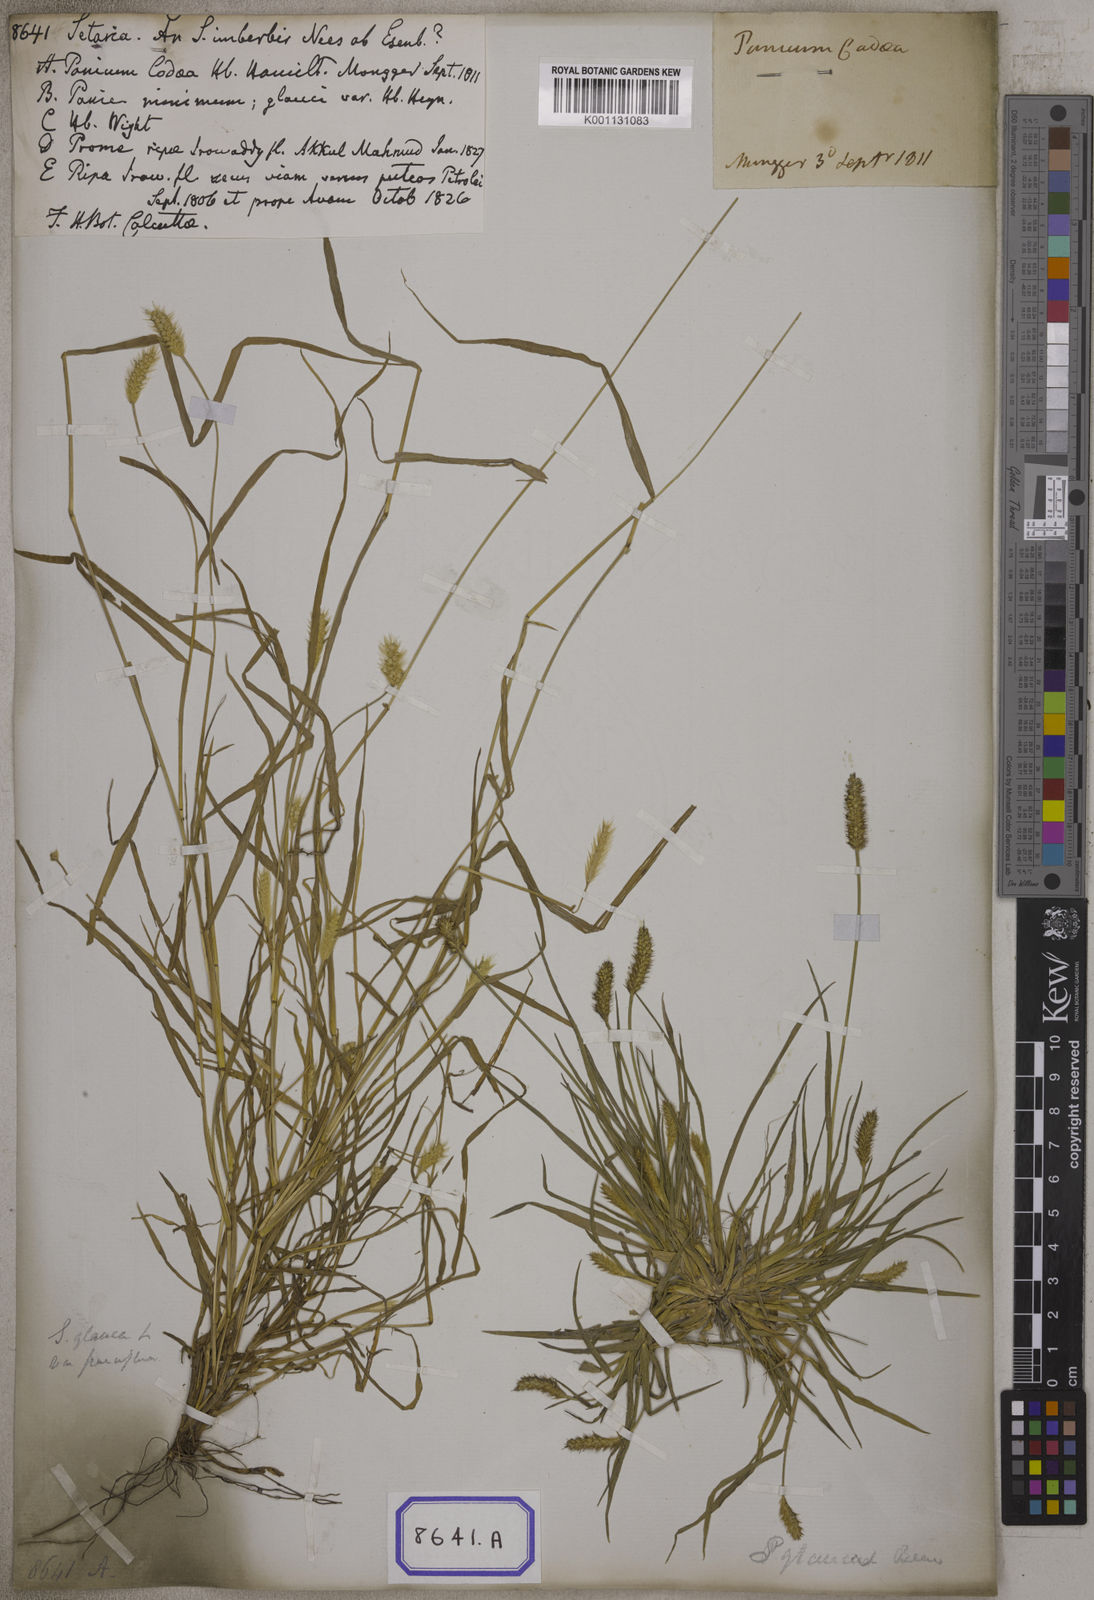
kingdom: Plantae
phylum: Tracheophyta
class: Liliopsida
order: Poales
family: Poaceae
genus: Setaria
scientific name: Setaria parviflora
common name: Knotroot bristle-grass
